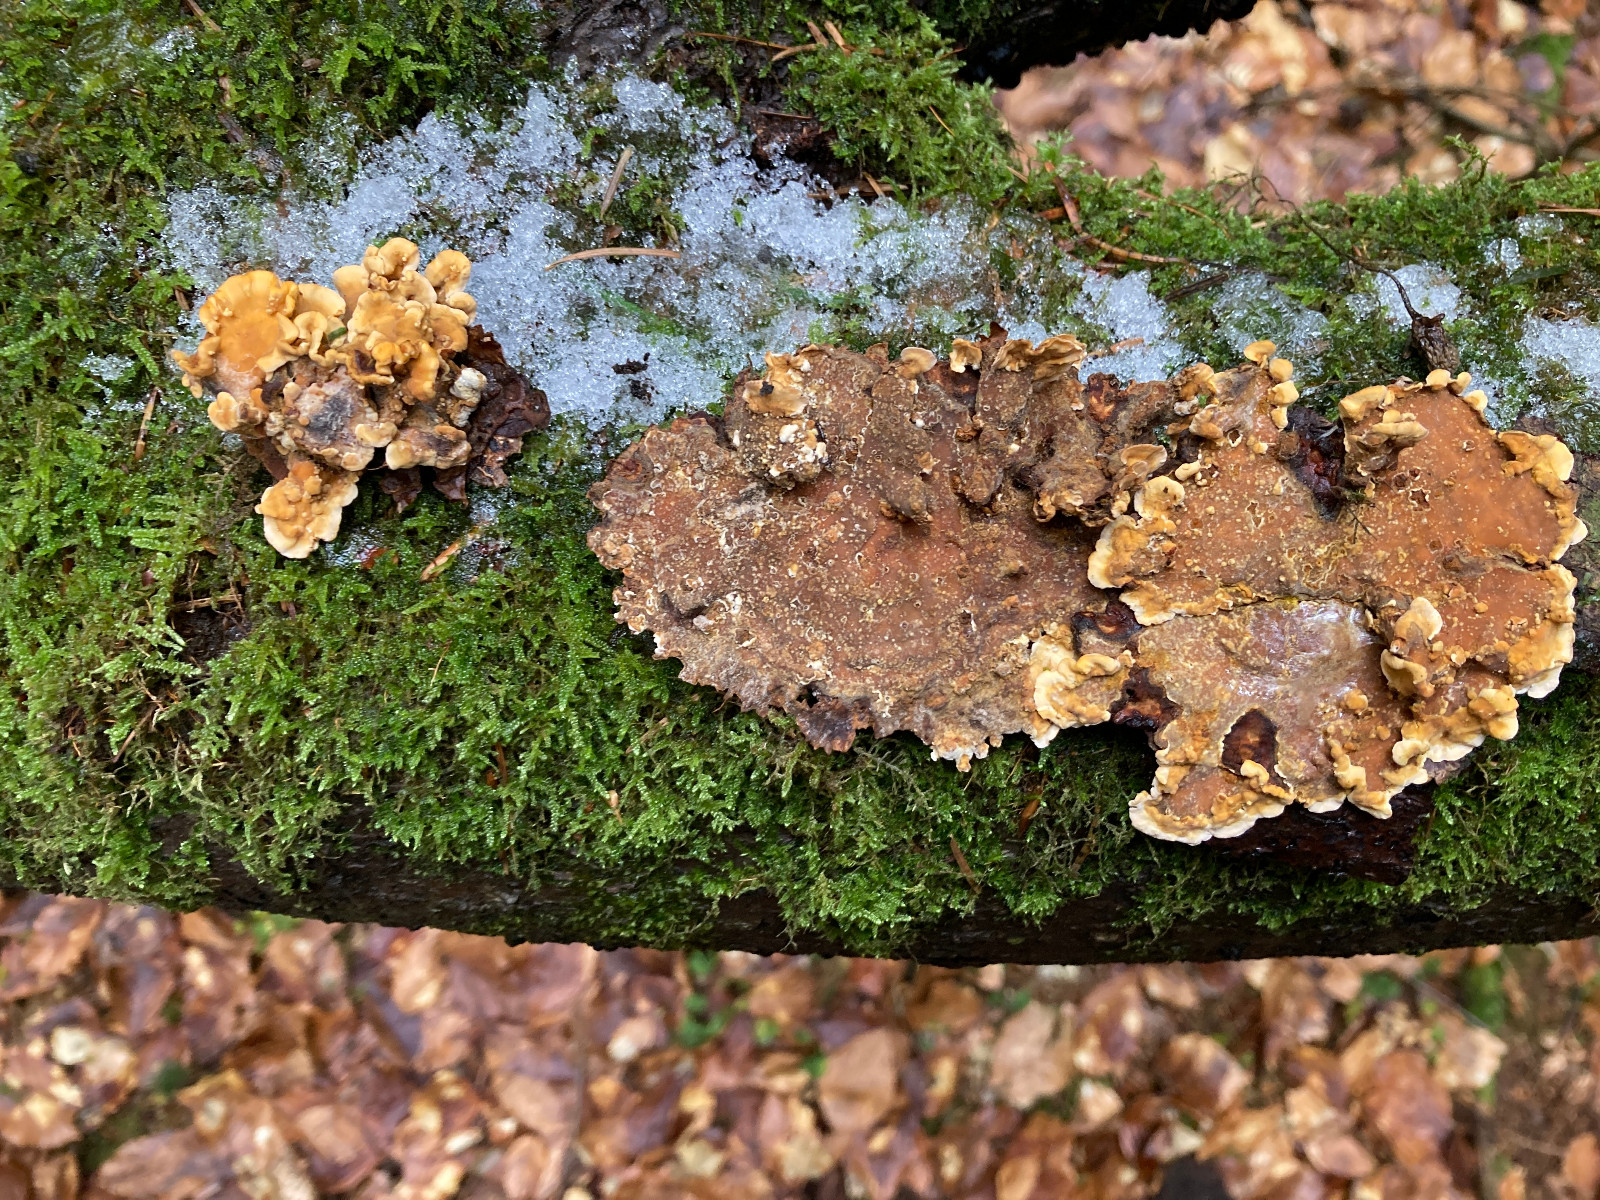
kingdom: Fungi
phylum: Basidiomycota
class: Agaricomycetes
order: Russulales
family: Stereaceae
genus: Stereum
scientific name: Stereum hirsutum
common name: håret lædersvamp
